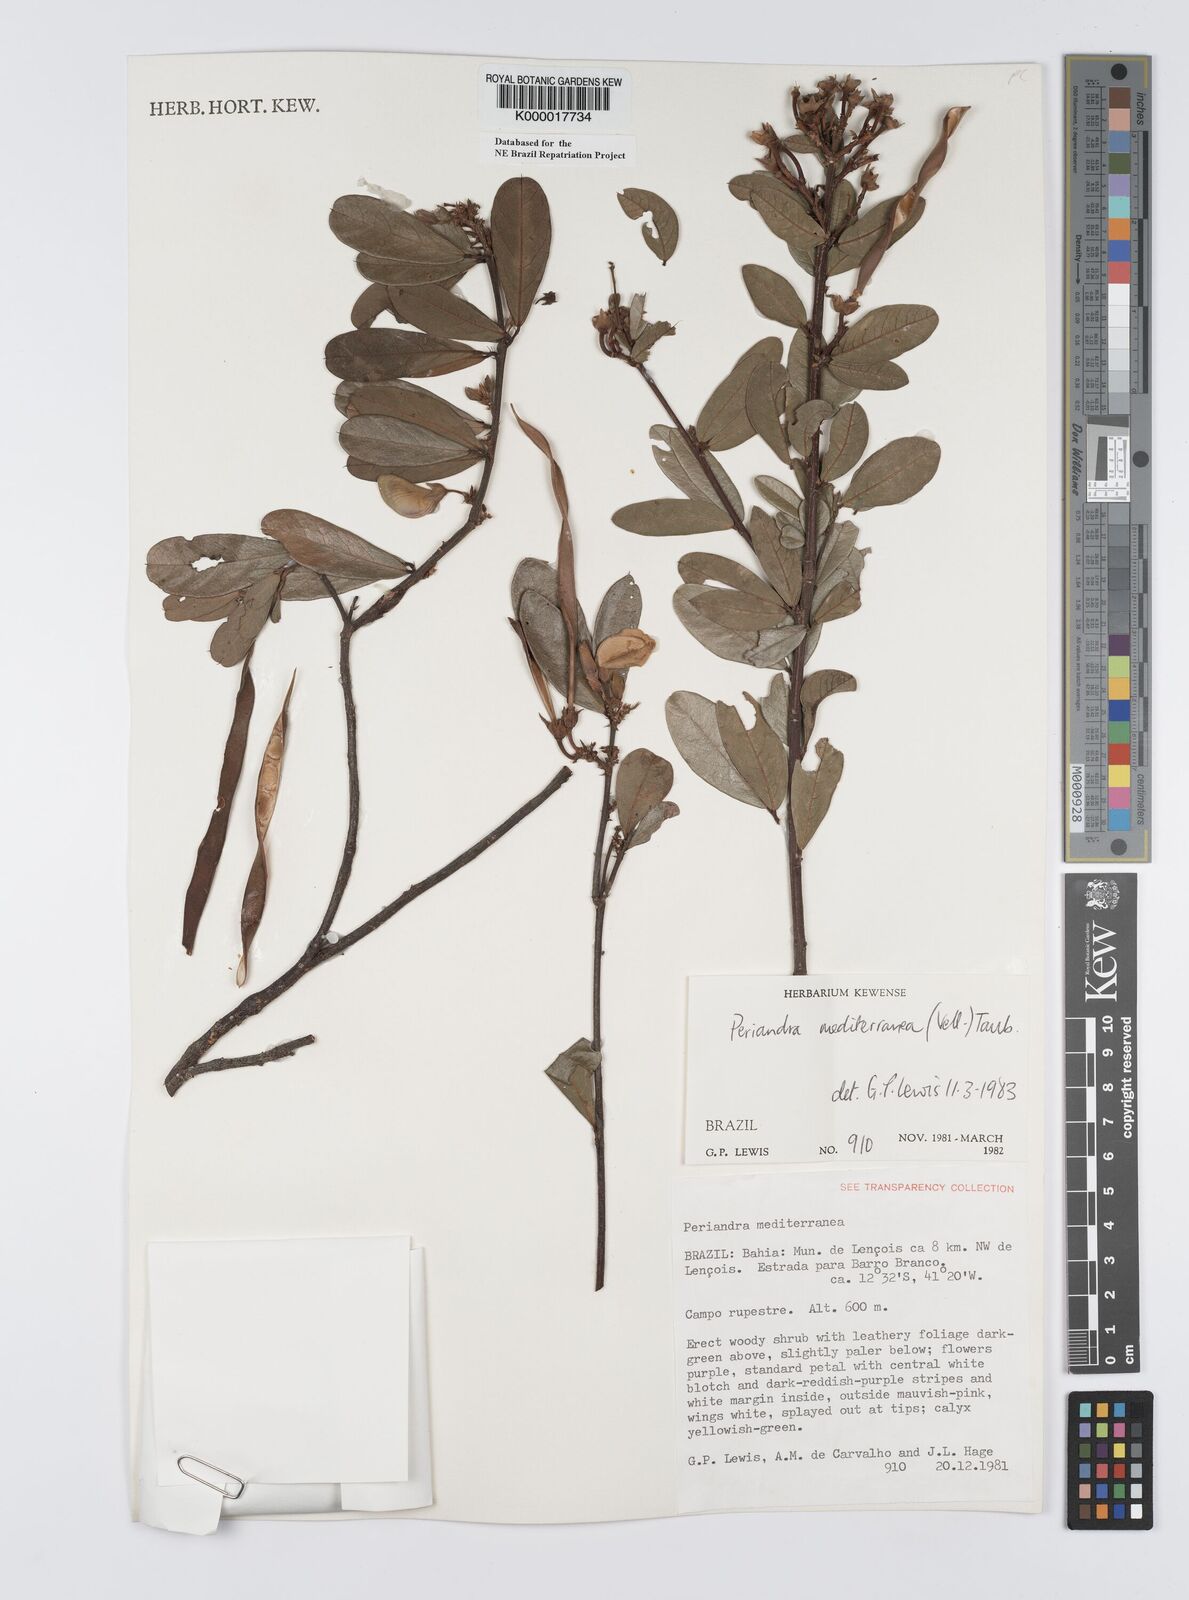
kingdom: Plantae
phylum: Tracheophyta
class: Magnoliopsida
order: Fabales
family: Fabaceae
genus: Periandra
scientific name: Periandra mediterranea
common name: Brazilian licorice
